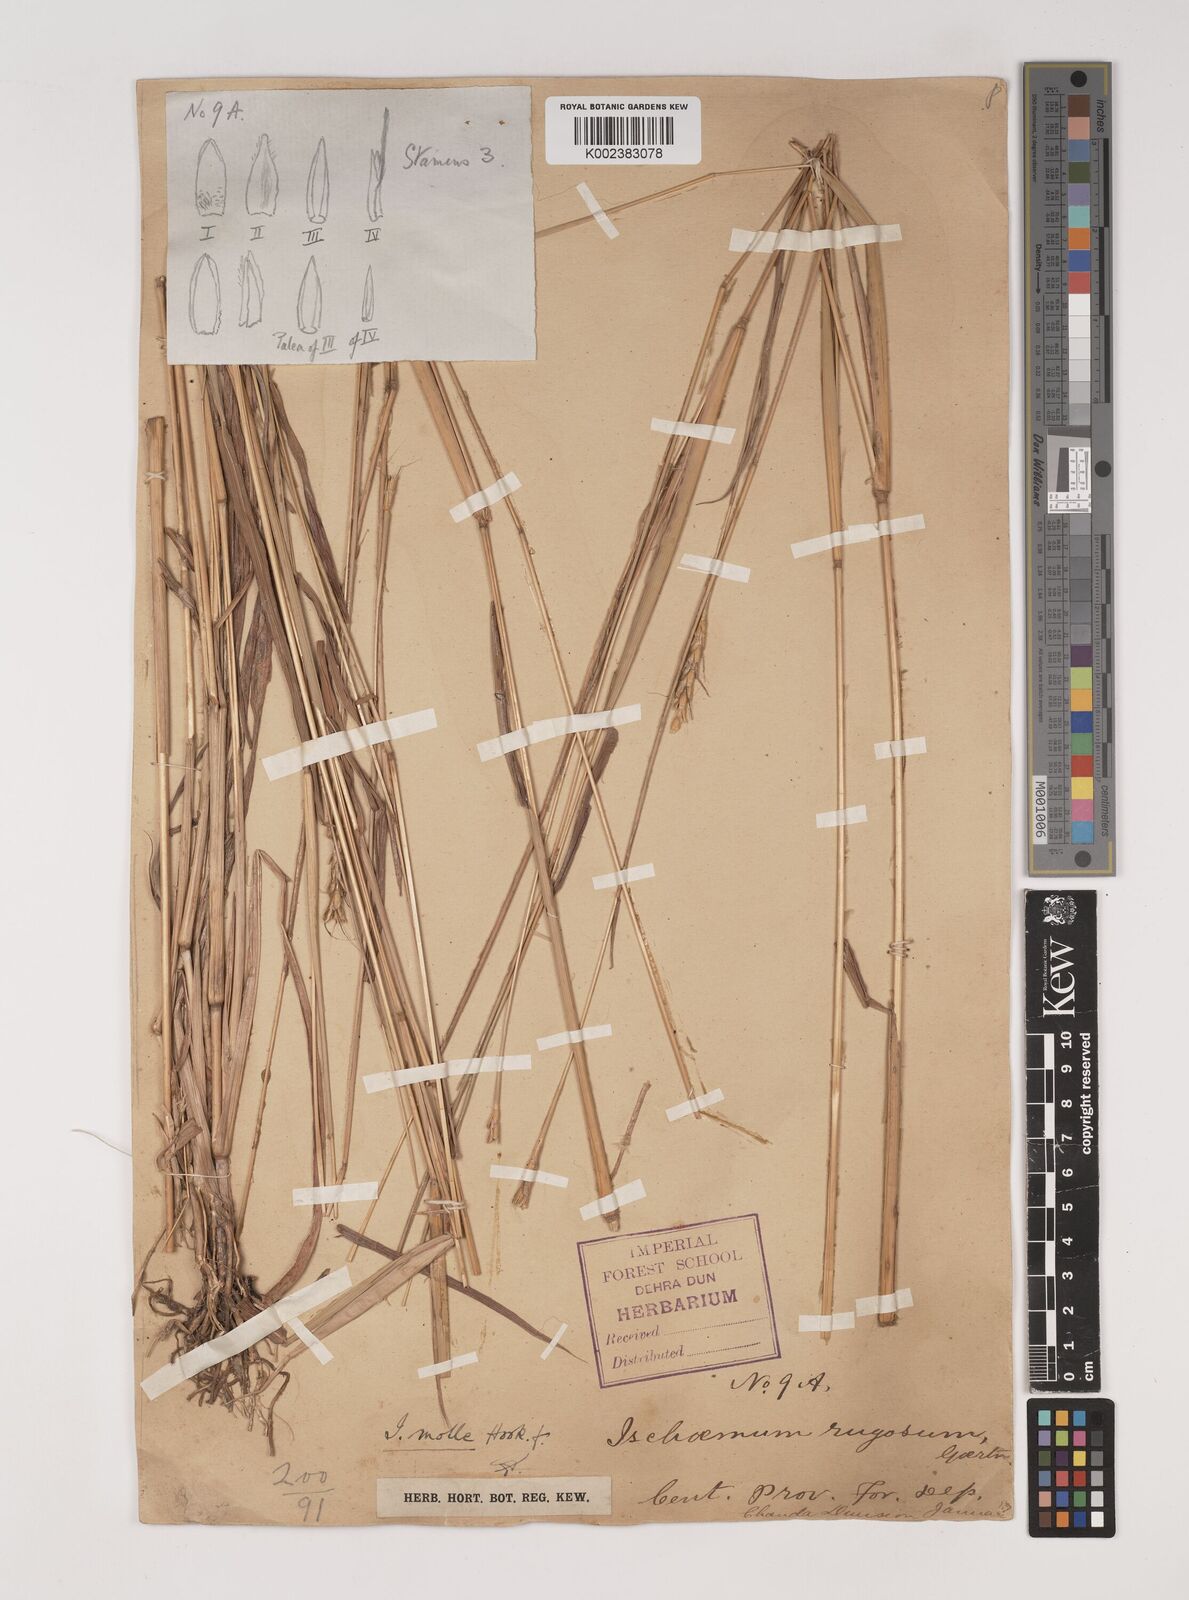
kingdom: Plantae
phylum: Tracheophyta
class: Liliopsida
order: Poales
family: Poaceae
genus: Ischaemum
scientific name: Ischaemum molle
